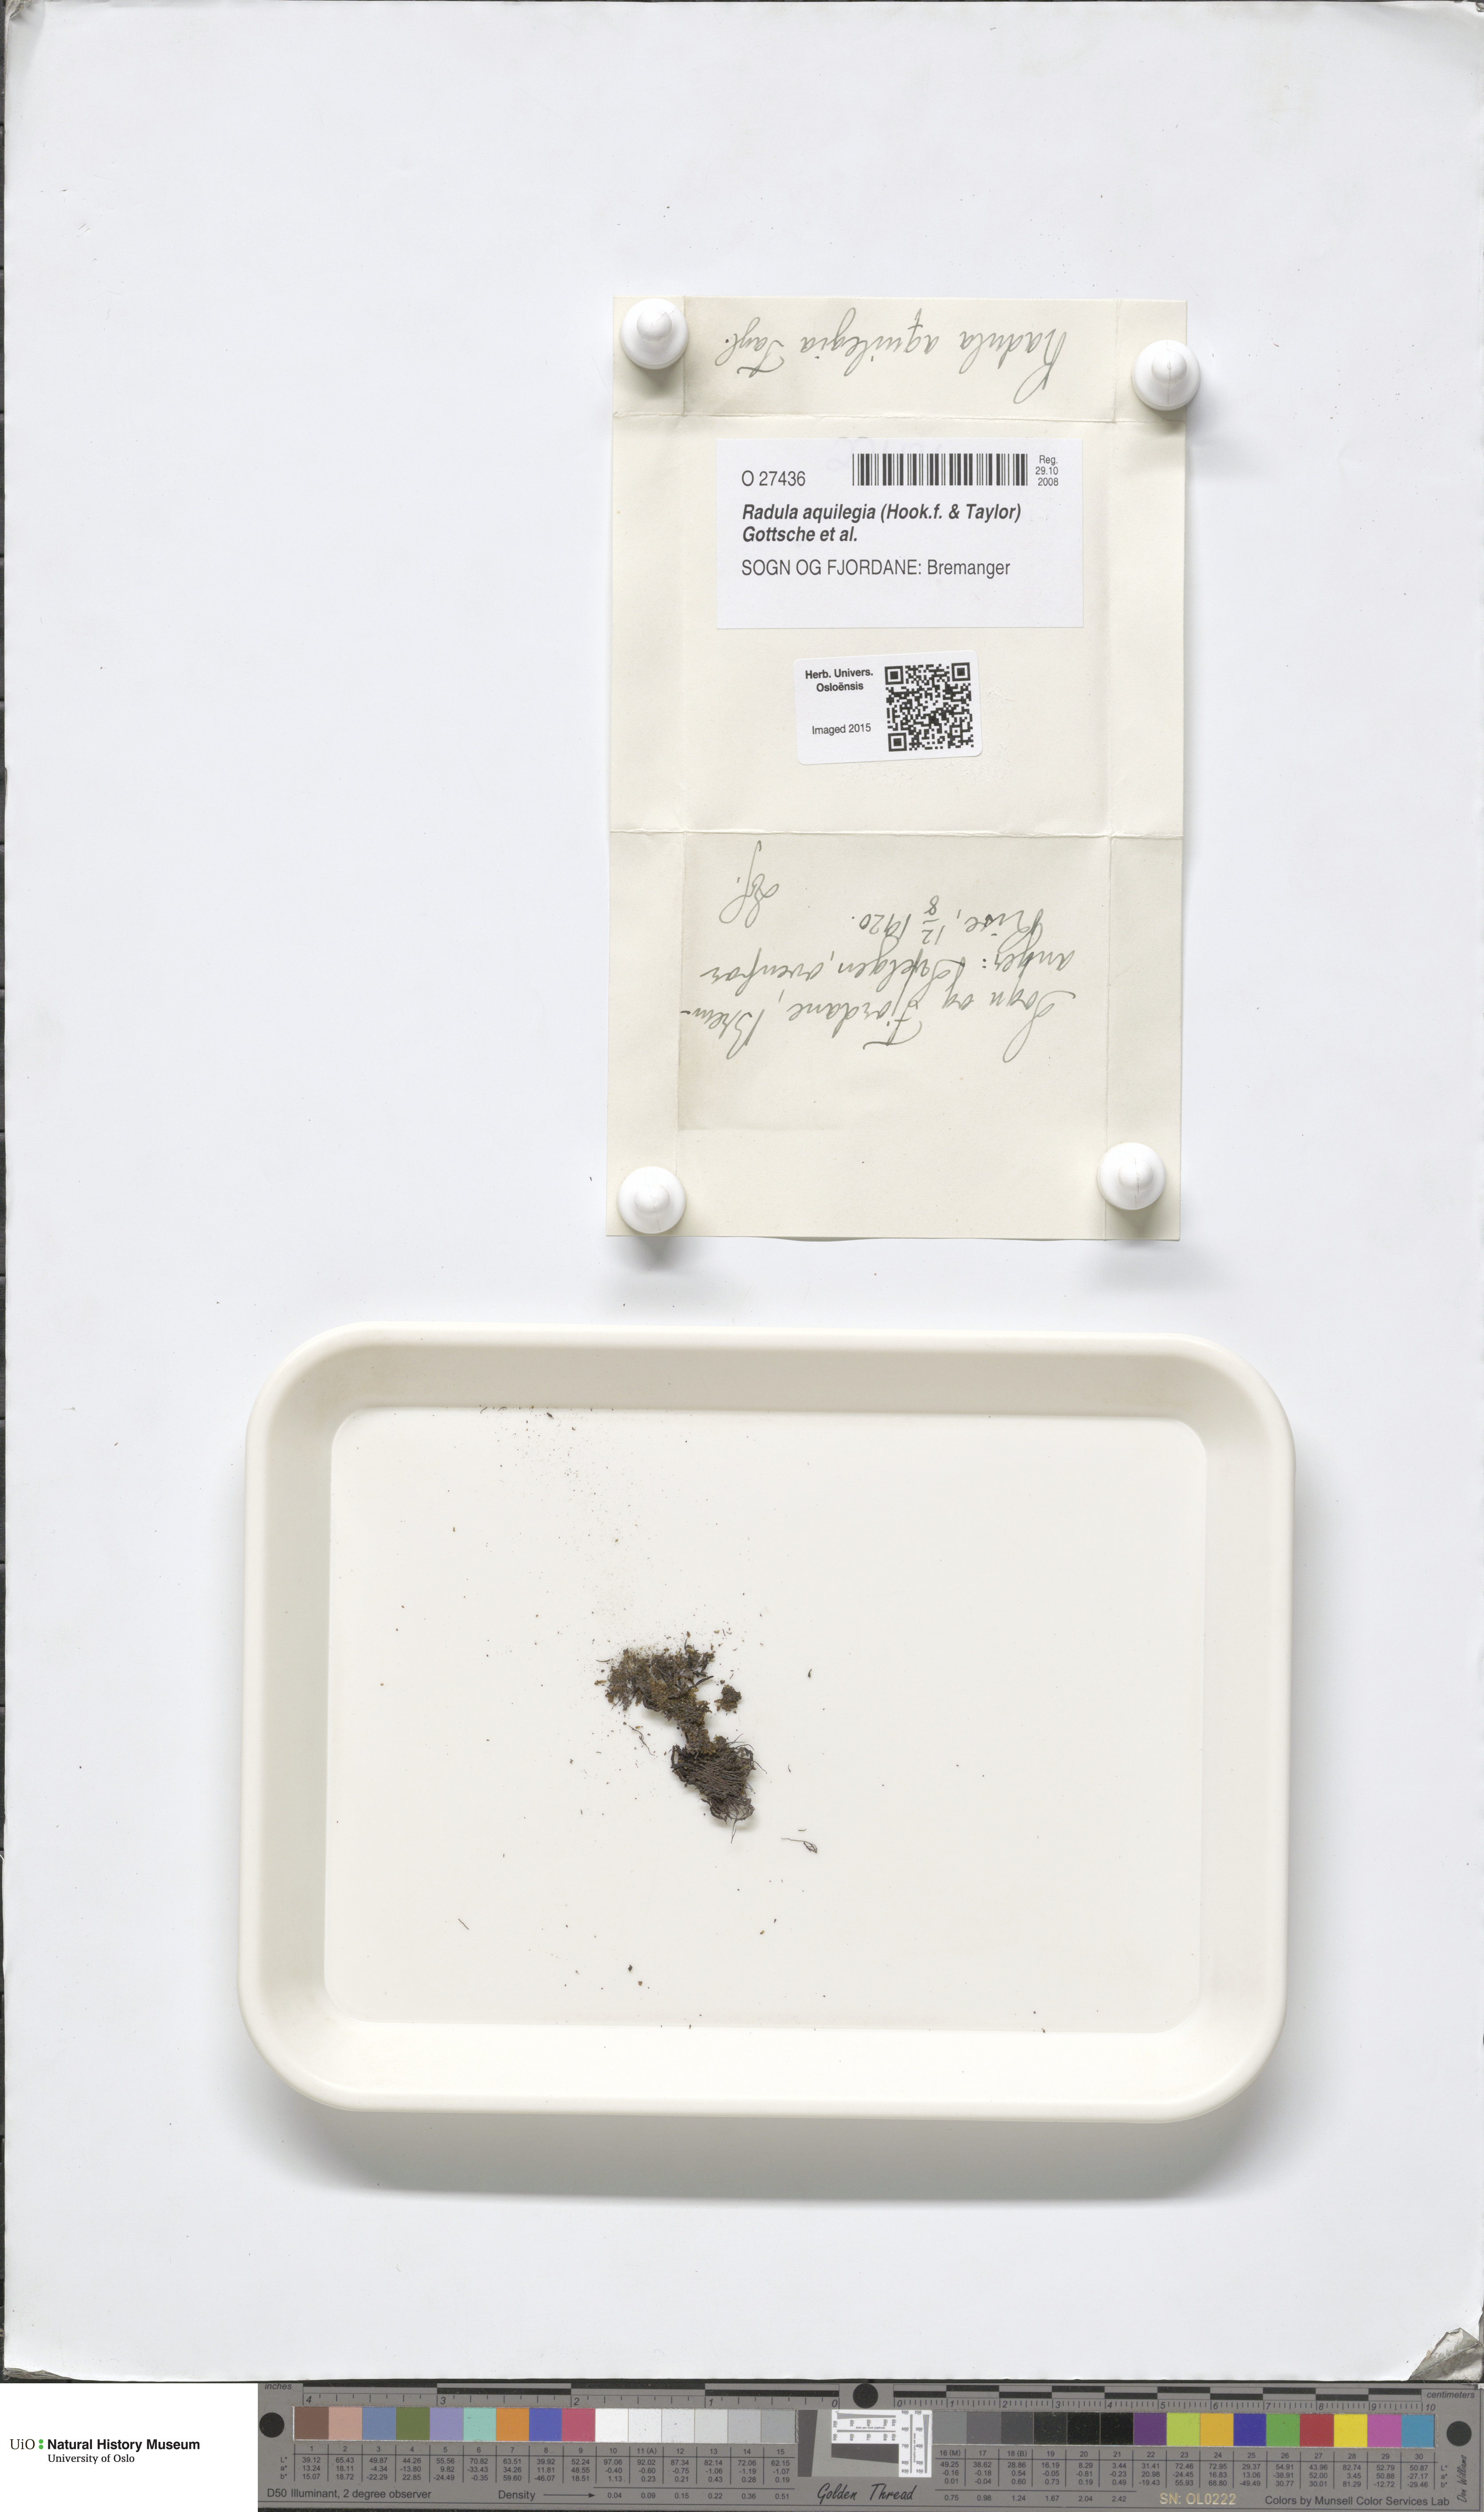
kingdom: Plantae
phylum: Marchantiophyta
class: Jungermanniopsida
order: Porellales
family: Radulaceae
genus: Radula
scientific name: Radula aquilegia
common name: Brown scalewort
